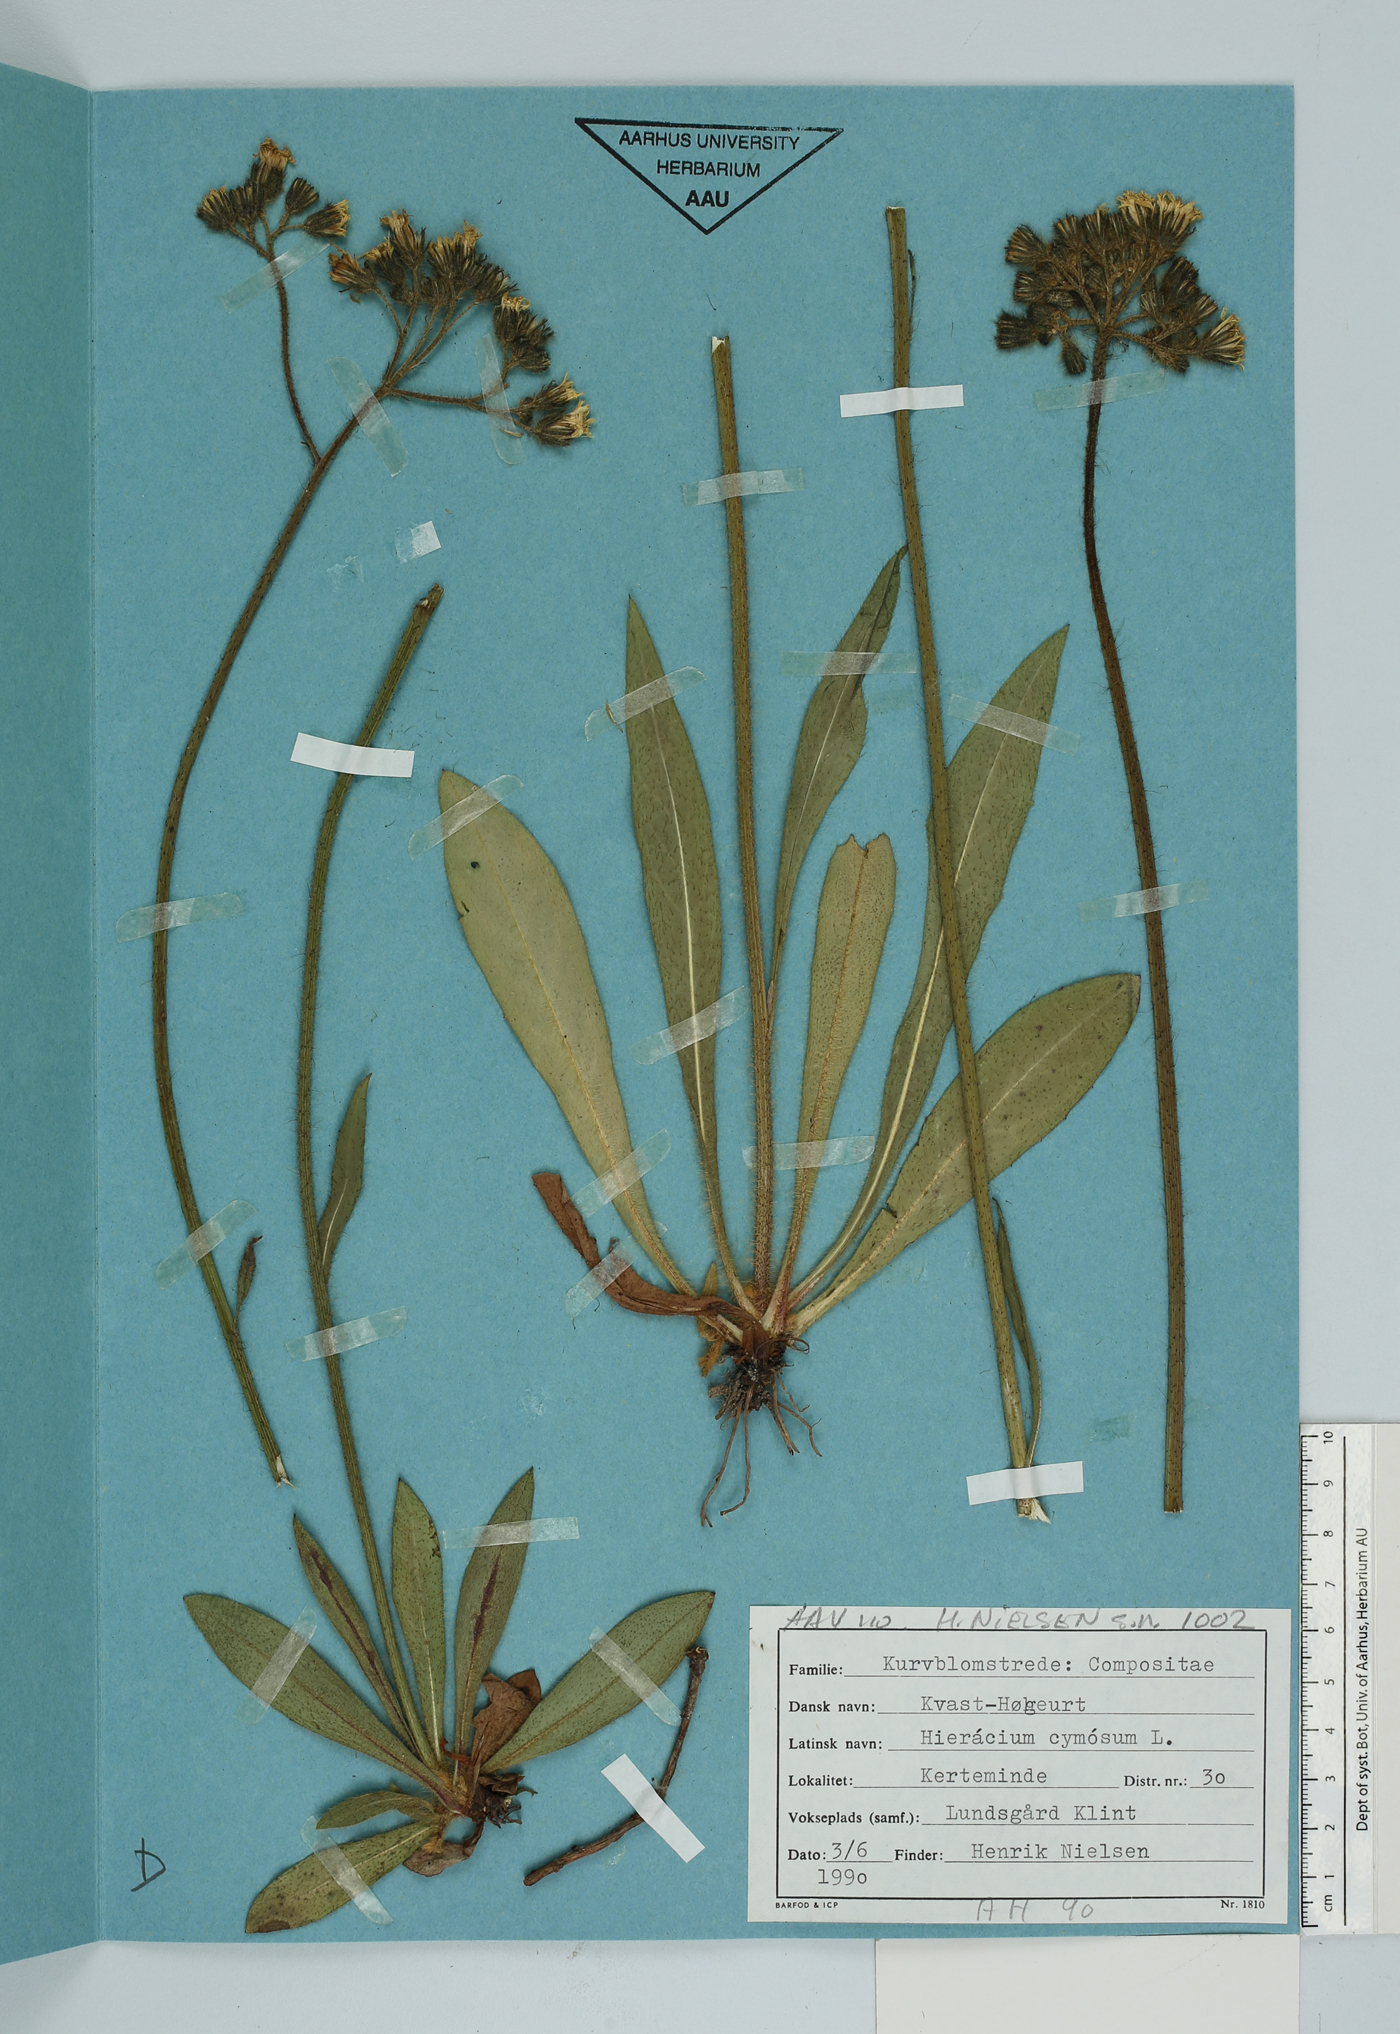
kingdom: Plantae
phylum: Tracheophyta
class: Magnoliopsida
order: Asterales
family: Asteraceae
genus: Pilosella
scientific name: Pilosella cymosa
